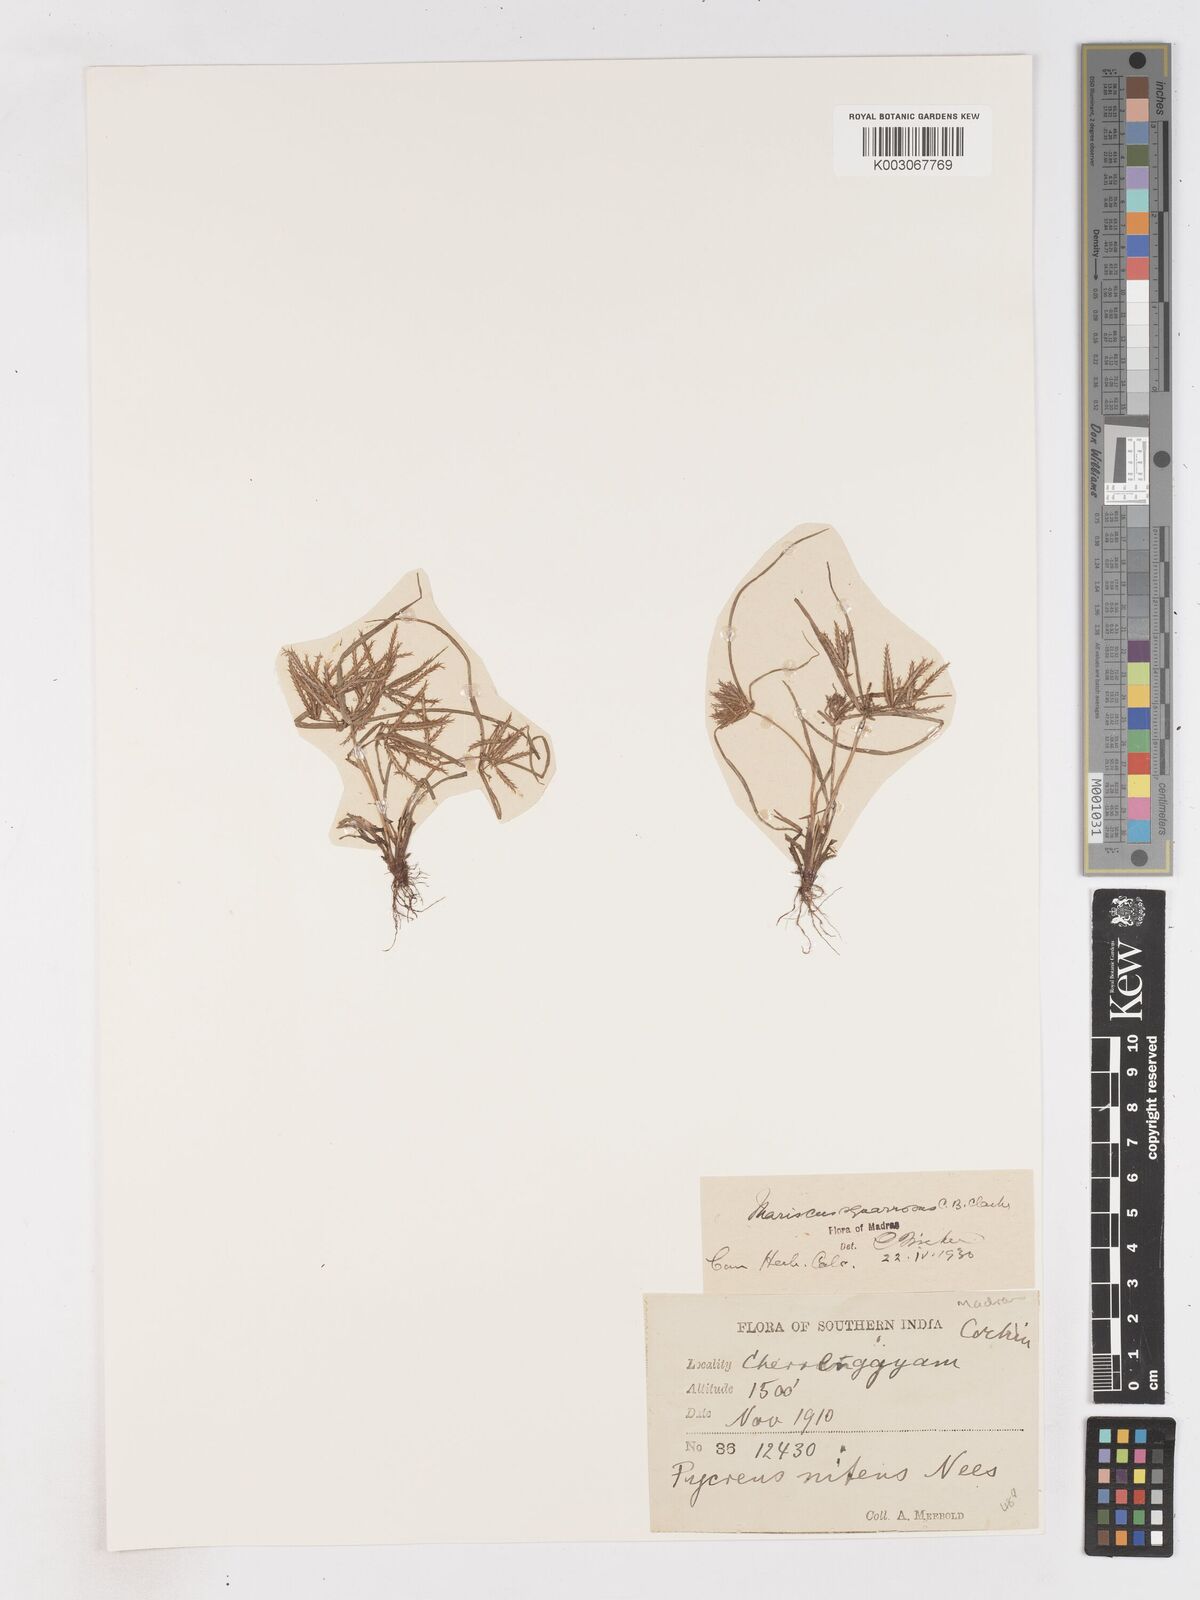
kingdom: Plantae
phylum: Tracheophyta
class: Liliopsida
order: Poales
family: Cyperaceae
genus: Cyperus
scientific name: Cyperus maderaspatanus
